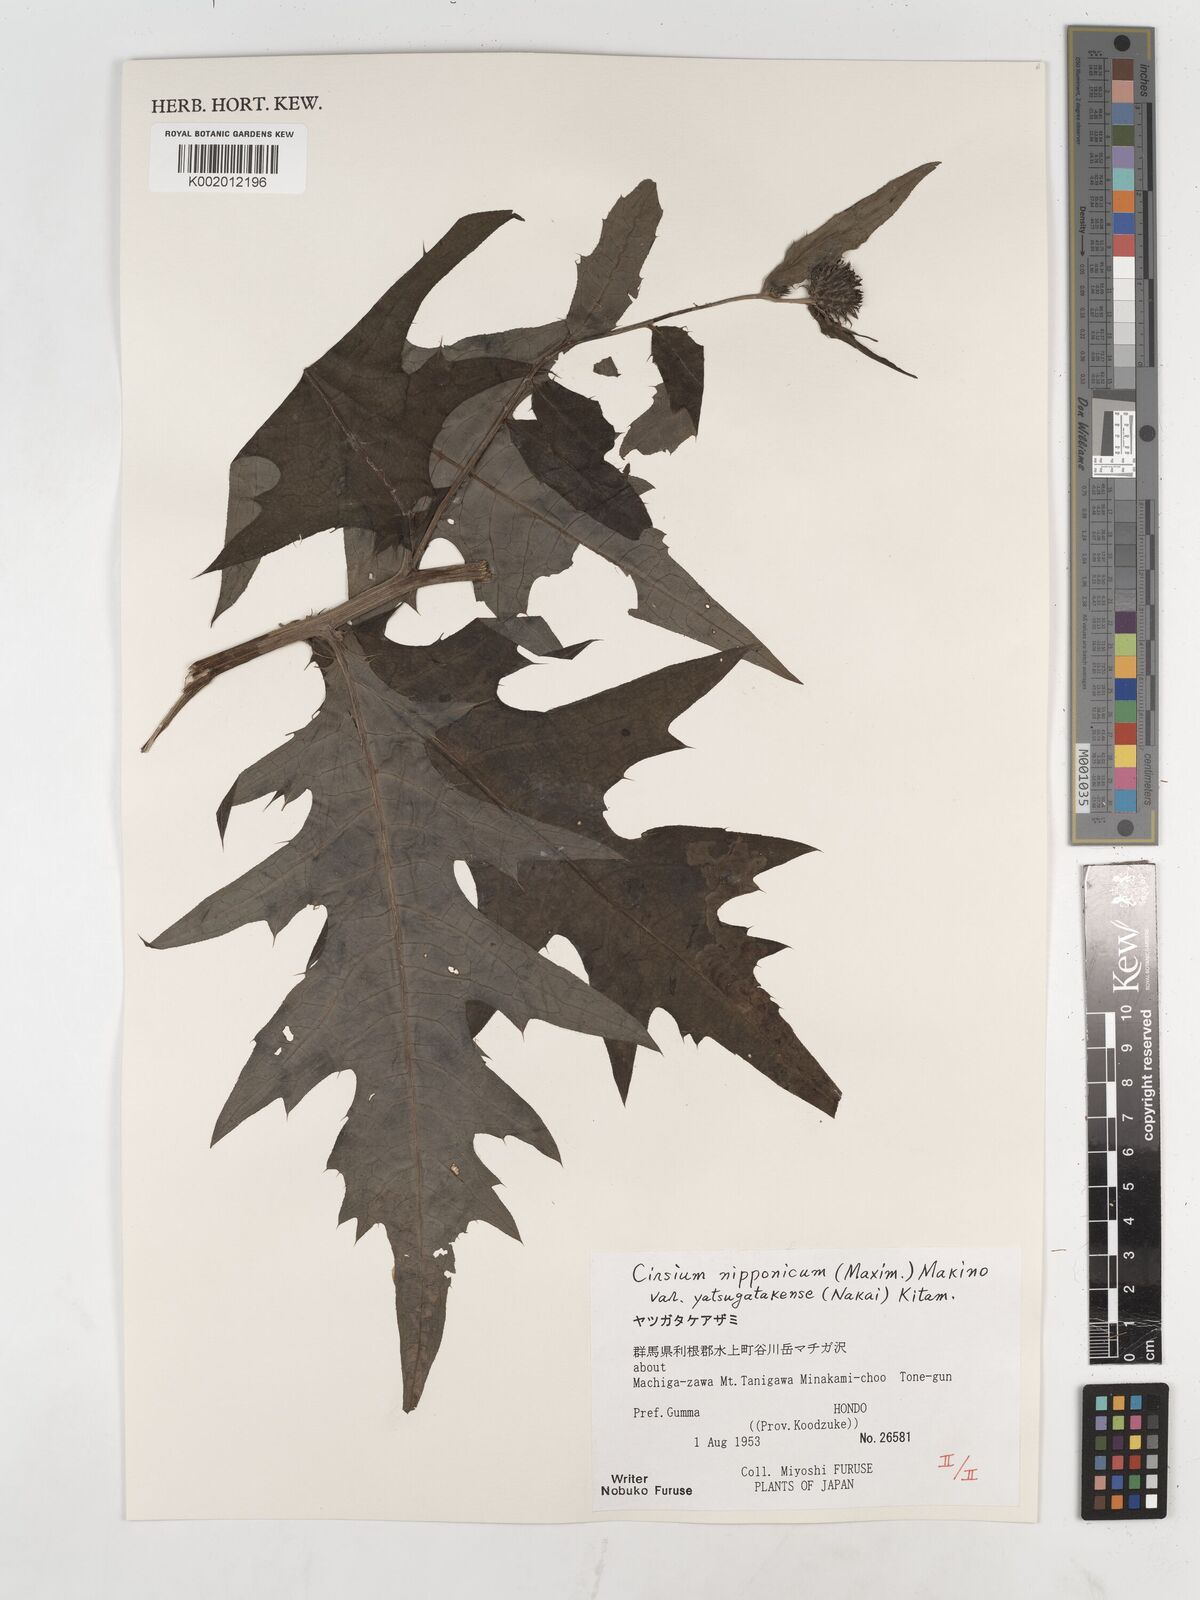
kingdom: Plantae
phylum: Tracheophyta
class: Magnoliopsida
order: Asterales
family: Asteraceae
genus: Cirsium
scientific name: Cirsium nipponicum
